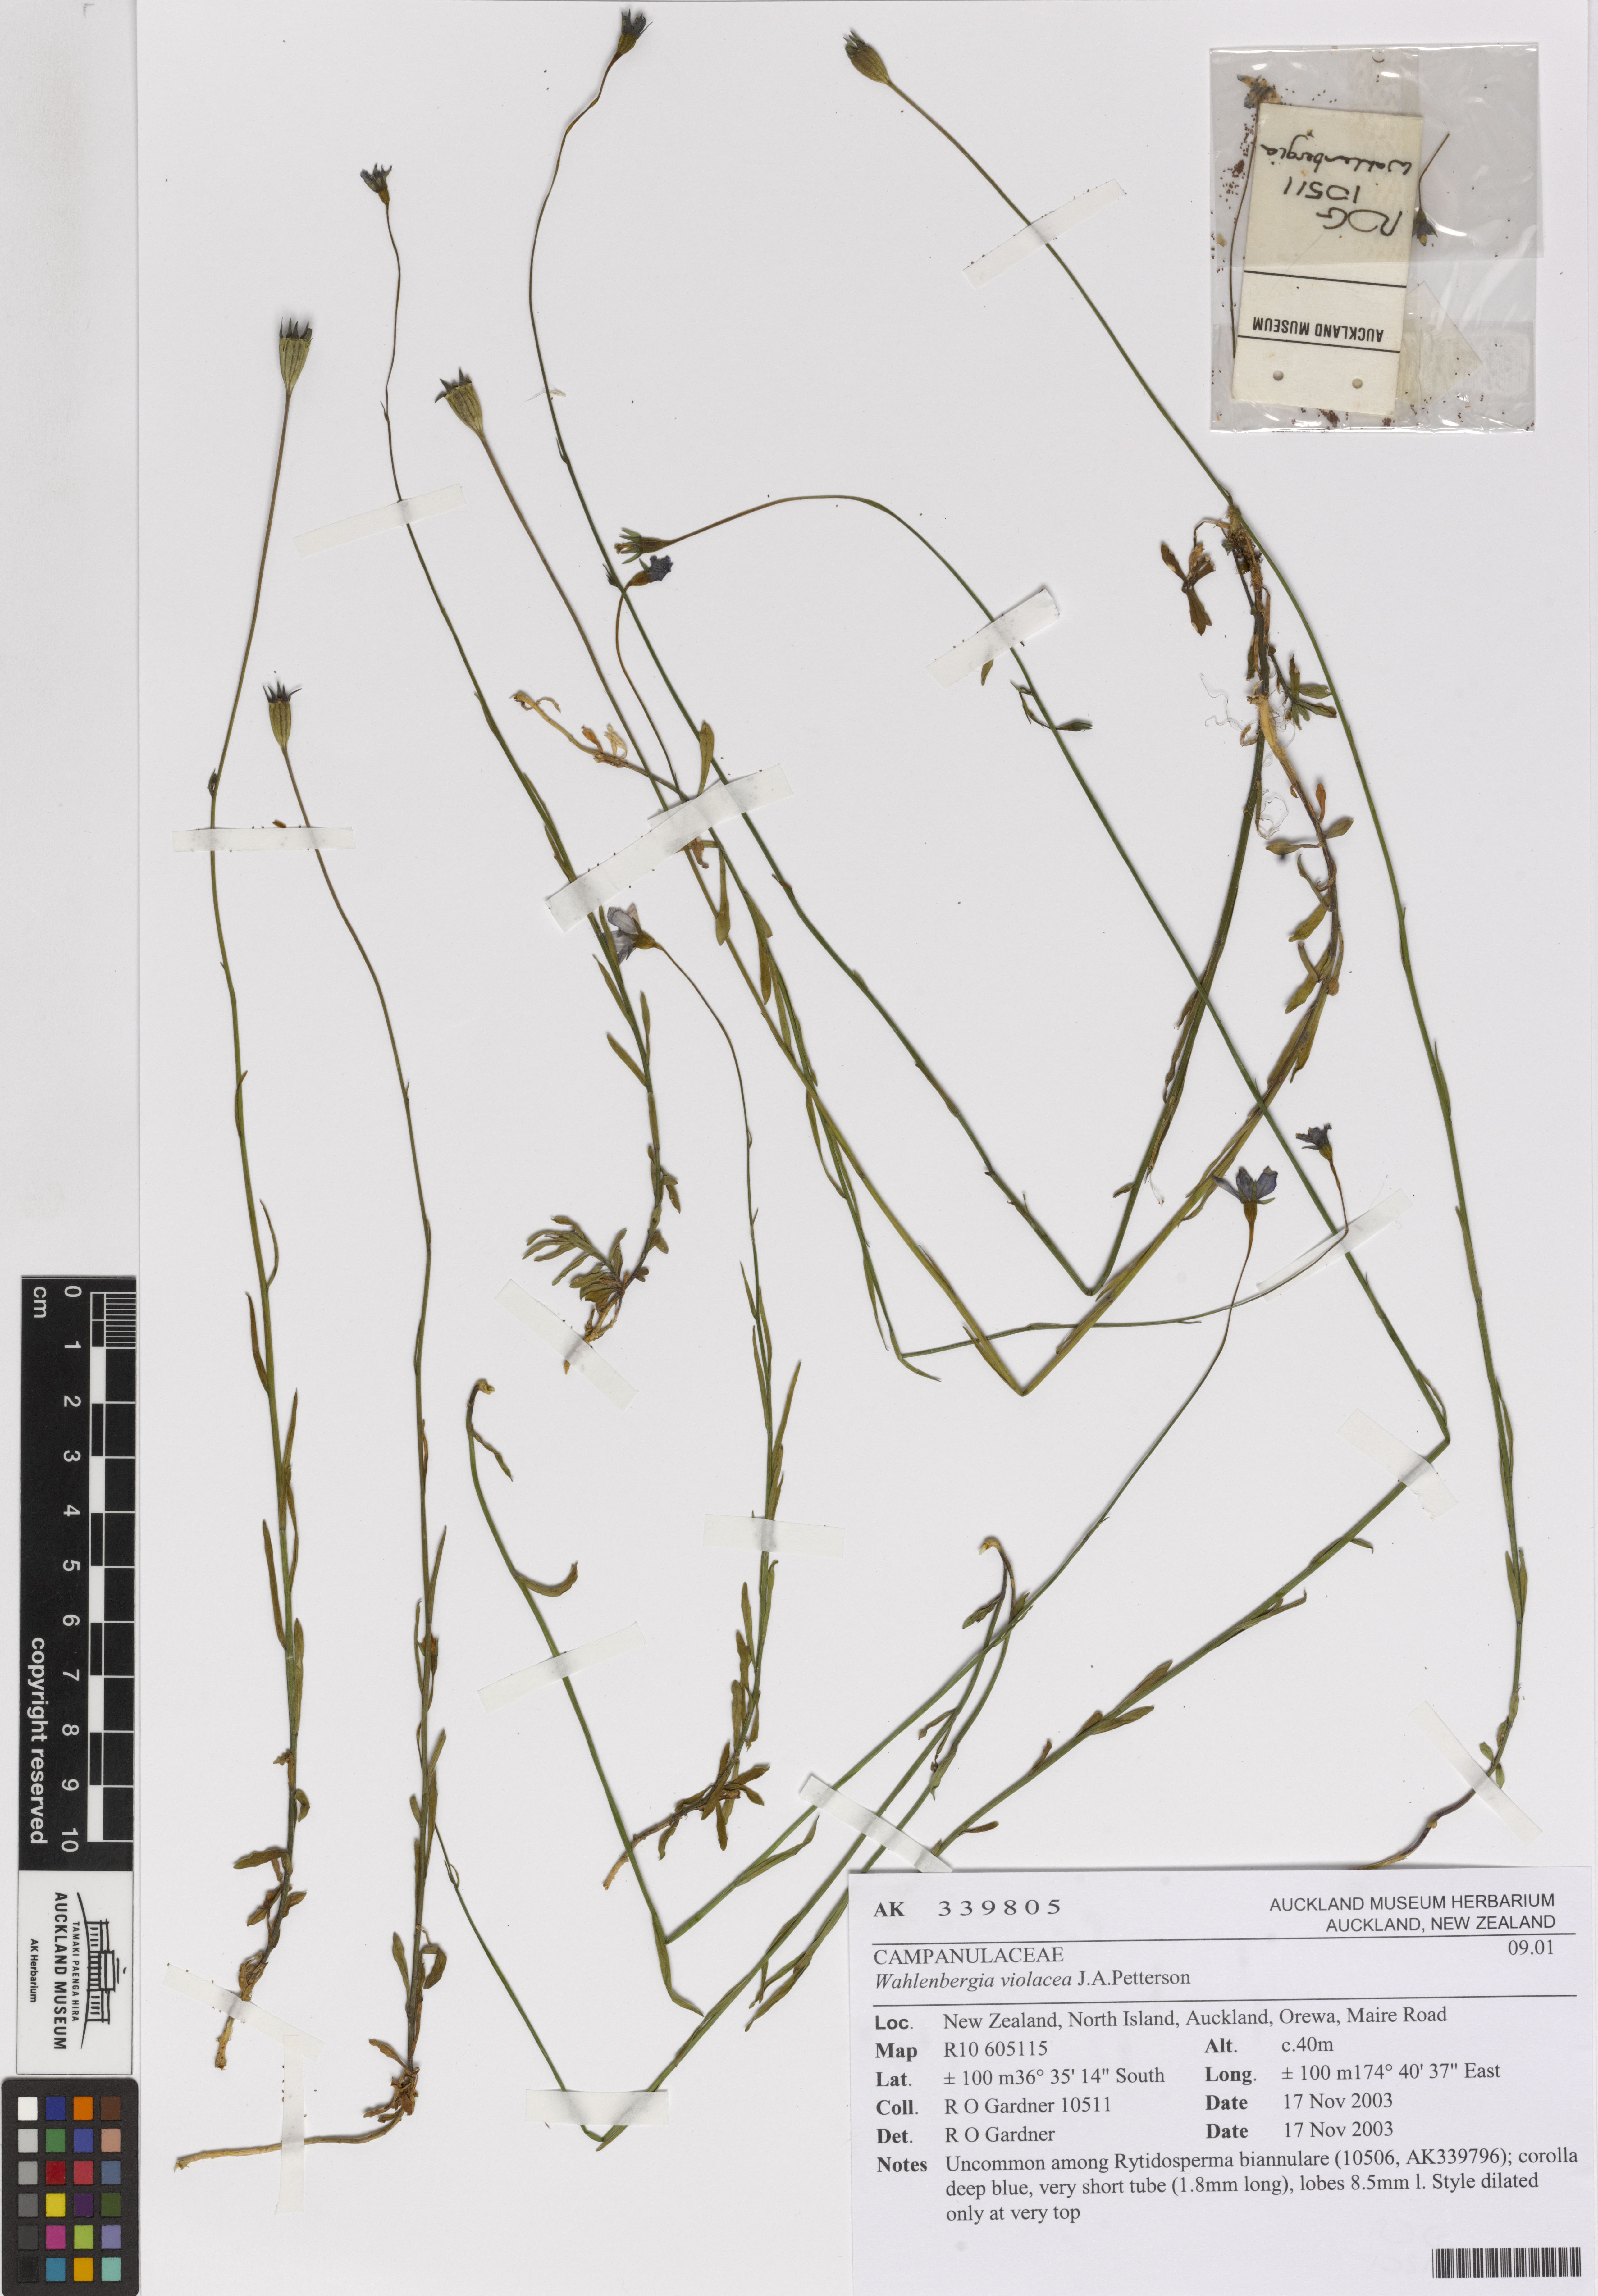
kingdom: Plantae
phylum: Tracheophyta
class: Magnoliopsida
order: Asterales
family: Campanulaceae
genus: Wahlenbergia
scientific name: Wahlenbergia violacea
